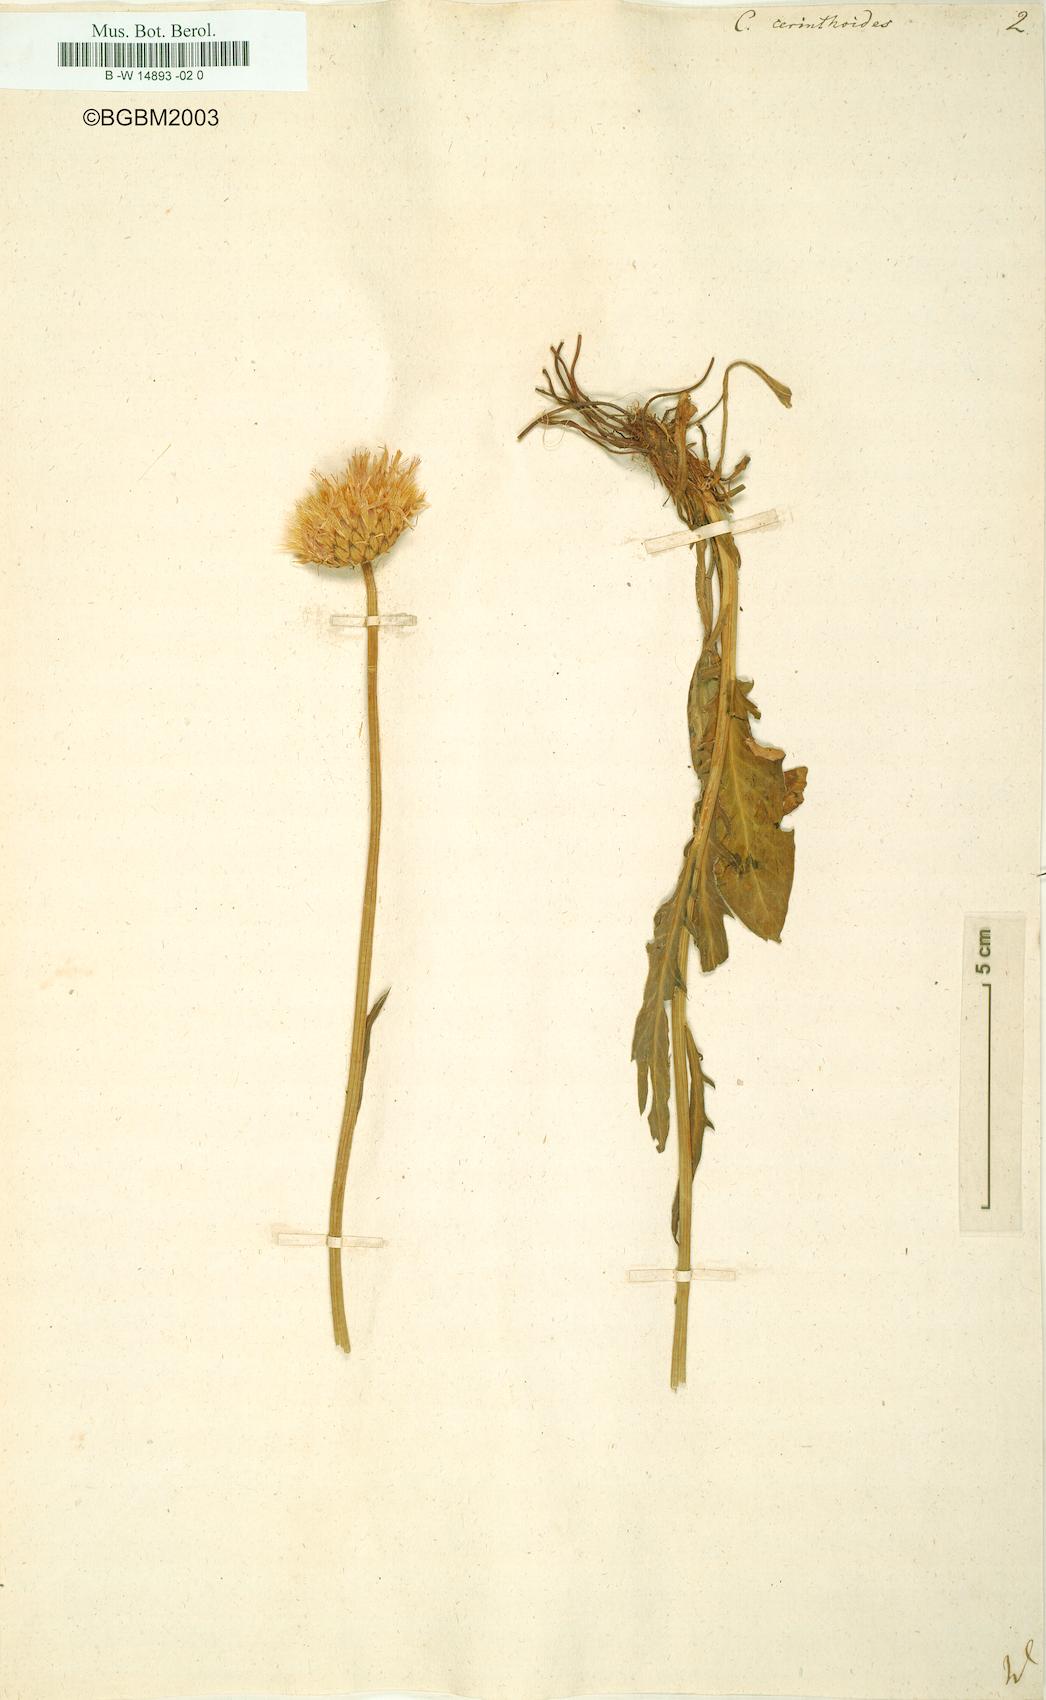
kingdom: Plantae
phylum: Tracheophyta
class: Magnoliopsida
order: Asterales
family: Asteraceae
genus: Klasea
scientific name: Klasea nudicaulis
